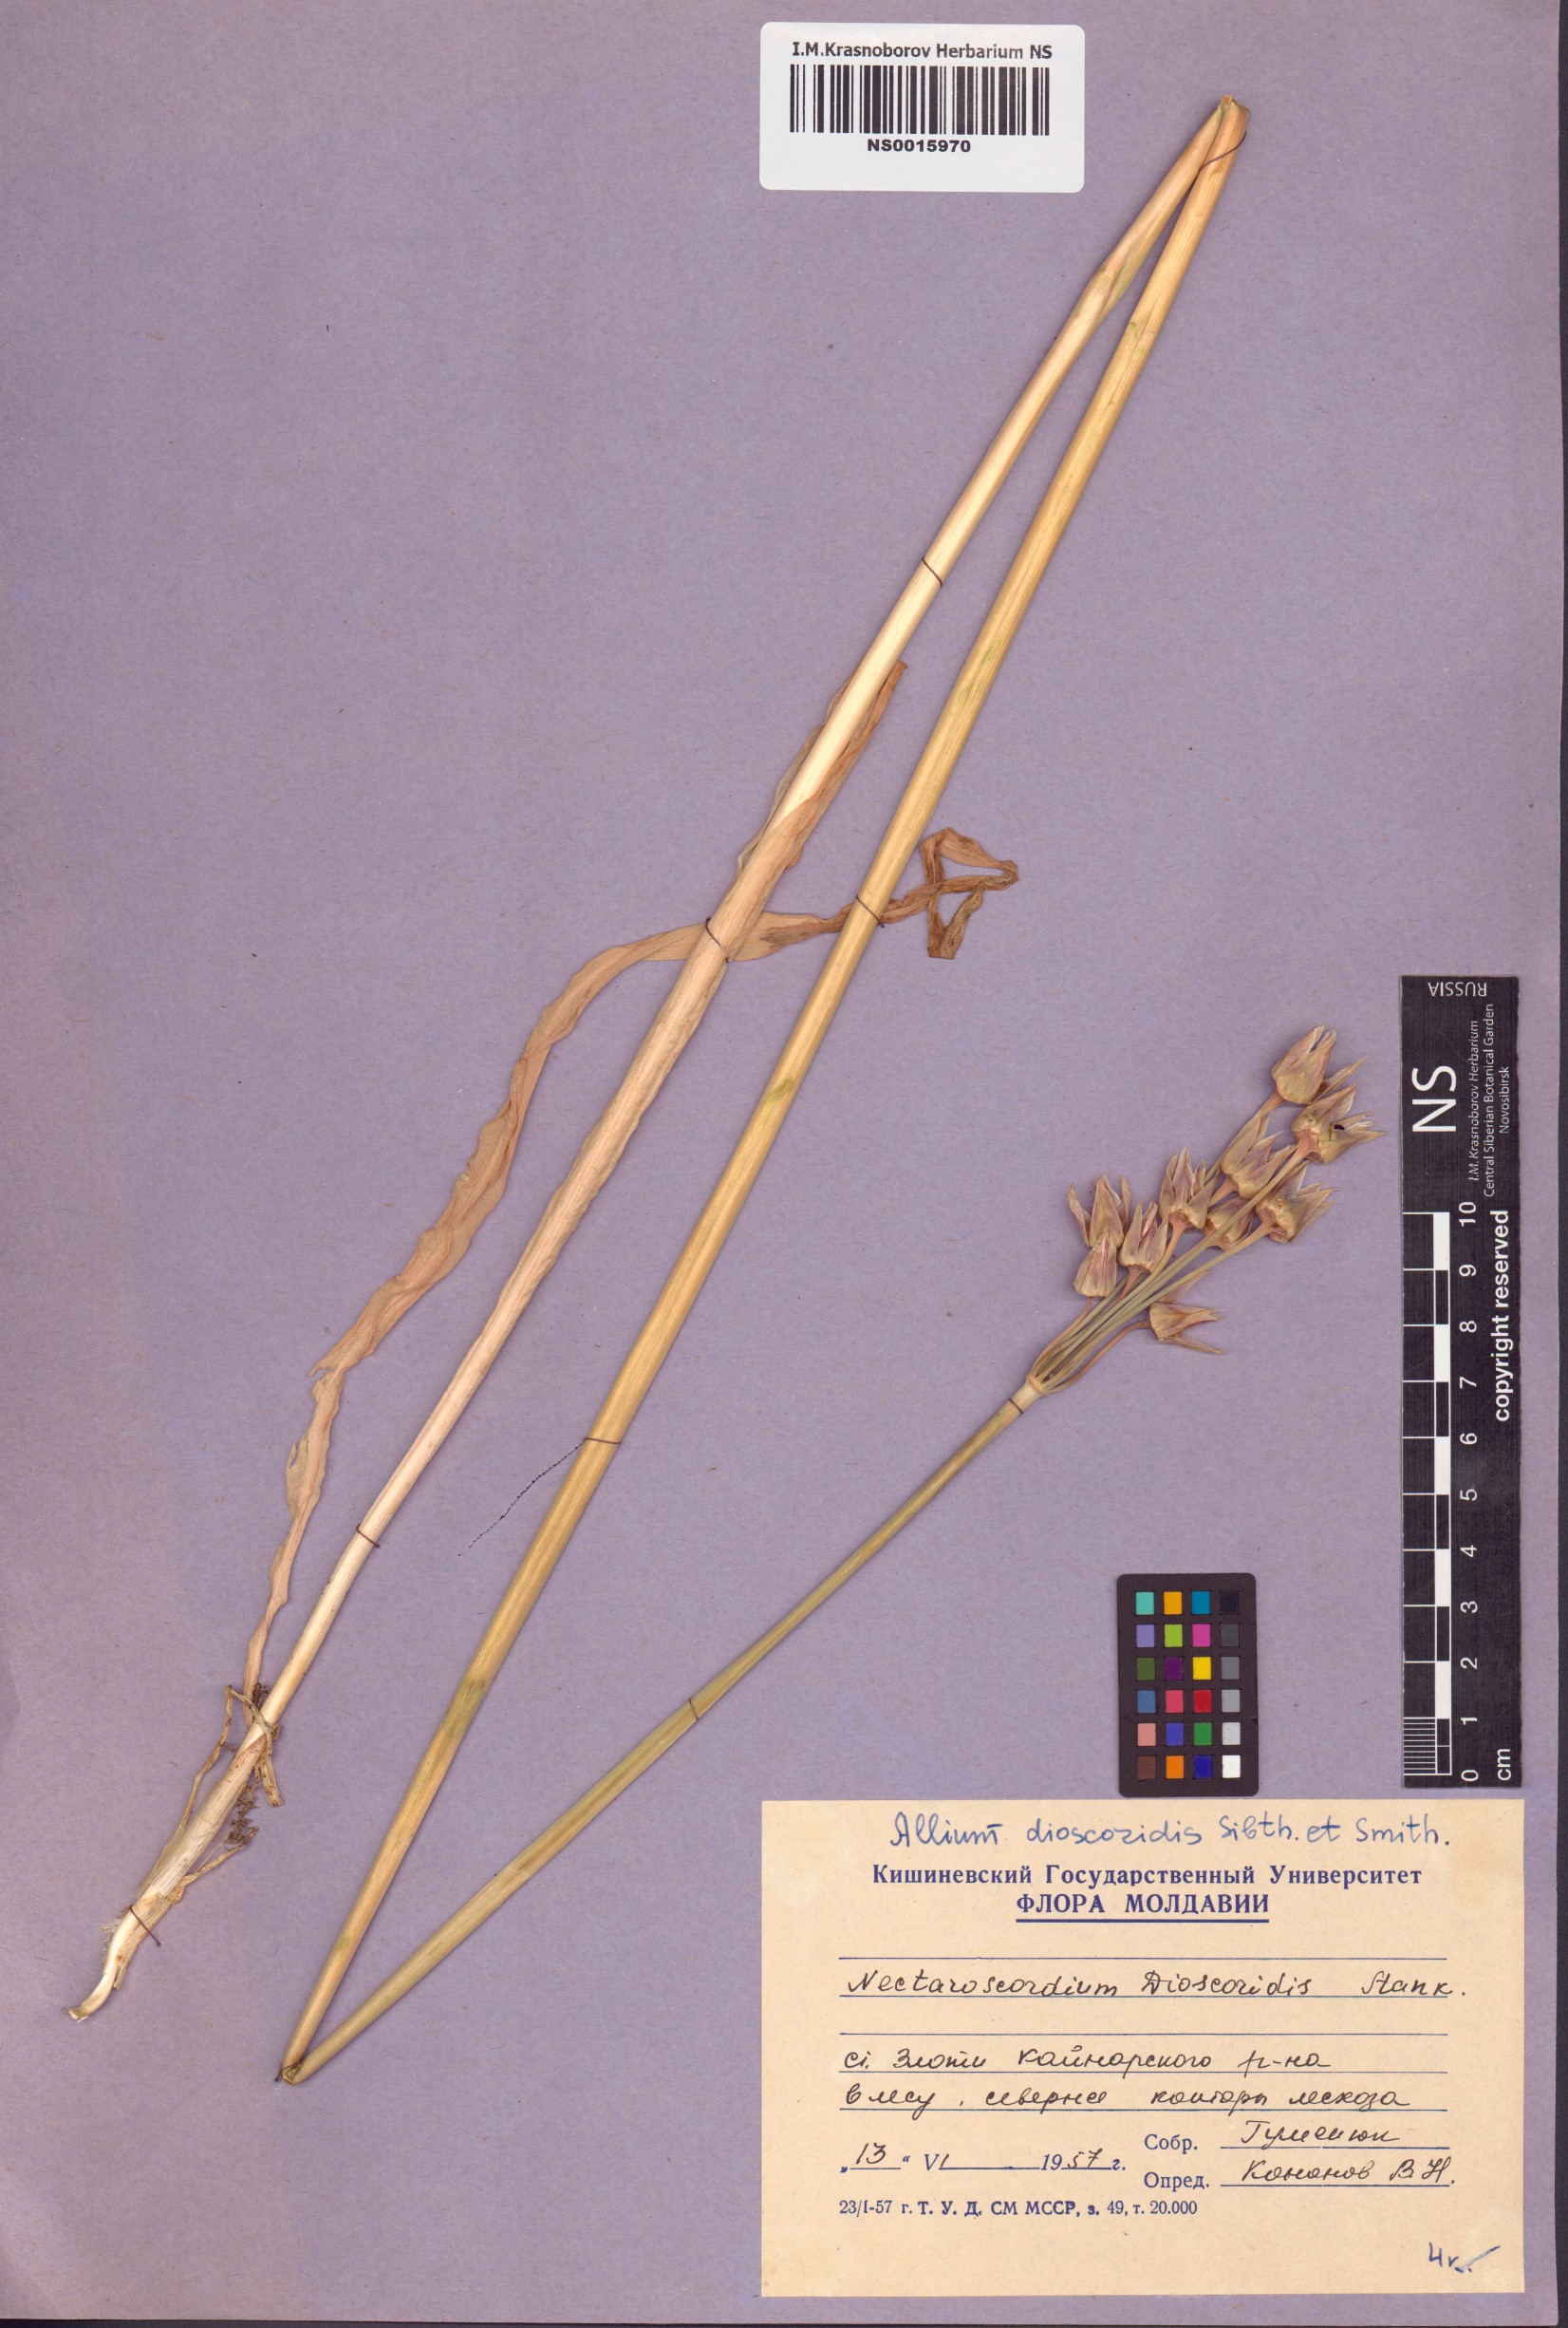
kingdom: Plantae
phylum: Tracheophyta
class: Liliopsida
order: Asparagales
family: Amaryllidaceae
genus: Allium
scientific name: Allium siculum
